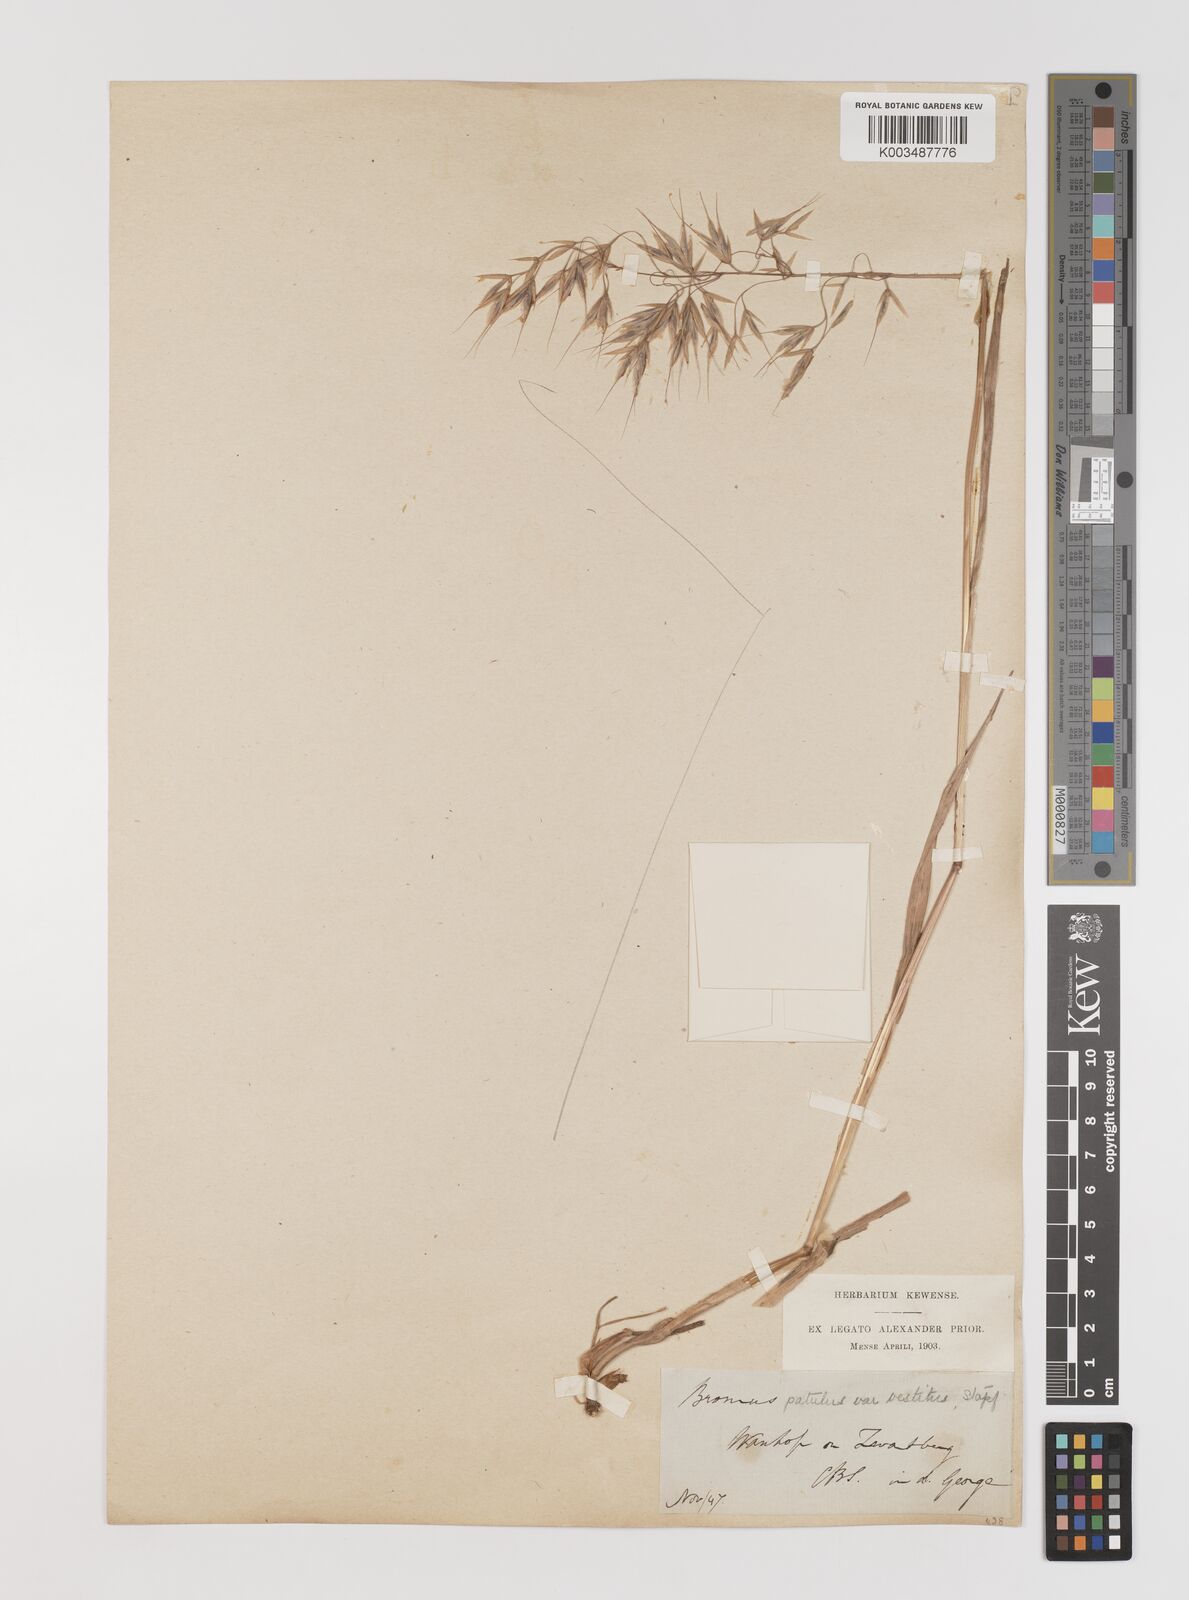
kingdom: Plantae
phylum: Tracheophyta
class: Liliopsida
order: Poales
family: Poaceae
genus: Bromus
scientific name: Bromus pectinatus
